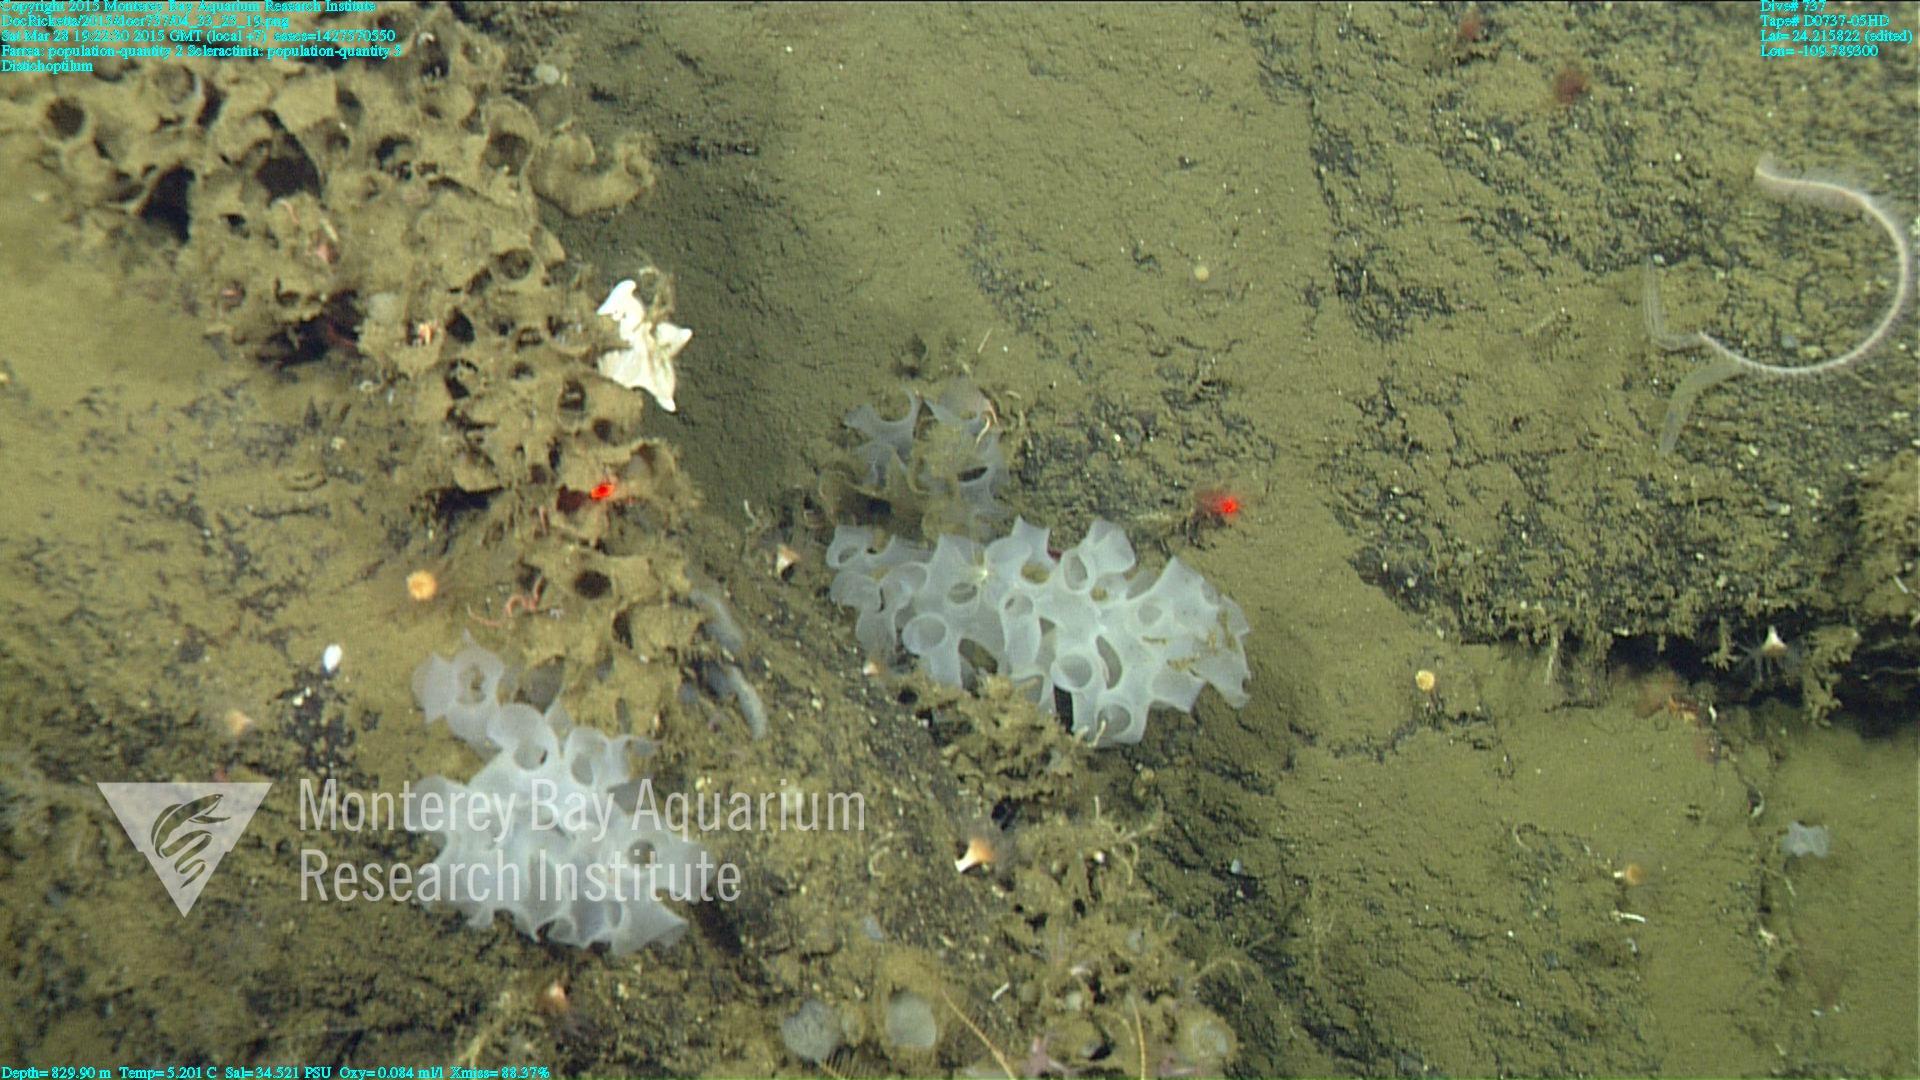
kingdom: Animalia
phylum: Cnidaria
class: Anthozoa
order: Scleractinia
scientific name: Scleractinia
